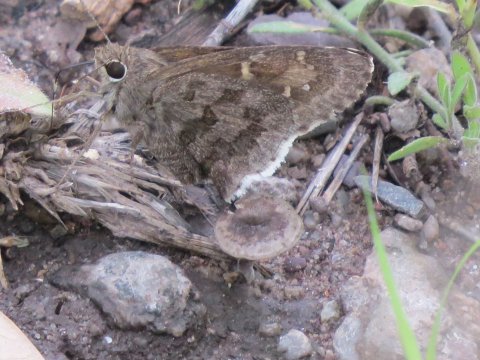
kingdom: Animalia
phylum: Arthropoda
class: Insecta
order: Lepidoptera
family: Hesperiidae
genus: Cogia
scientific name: Cogia hippalus
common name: Acacia Skipper
